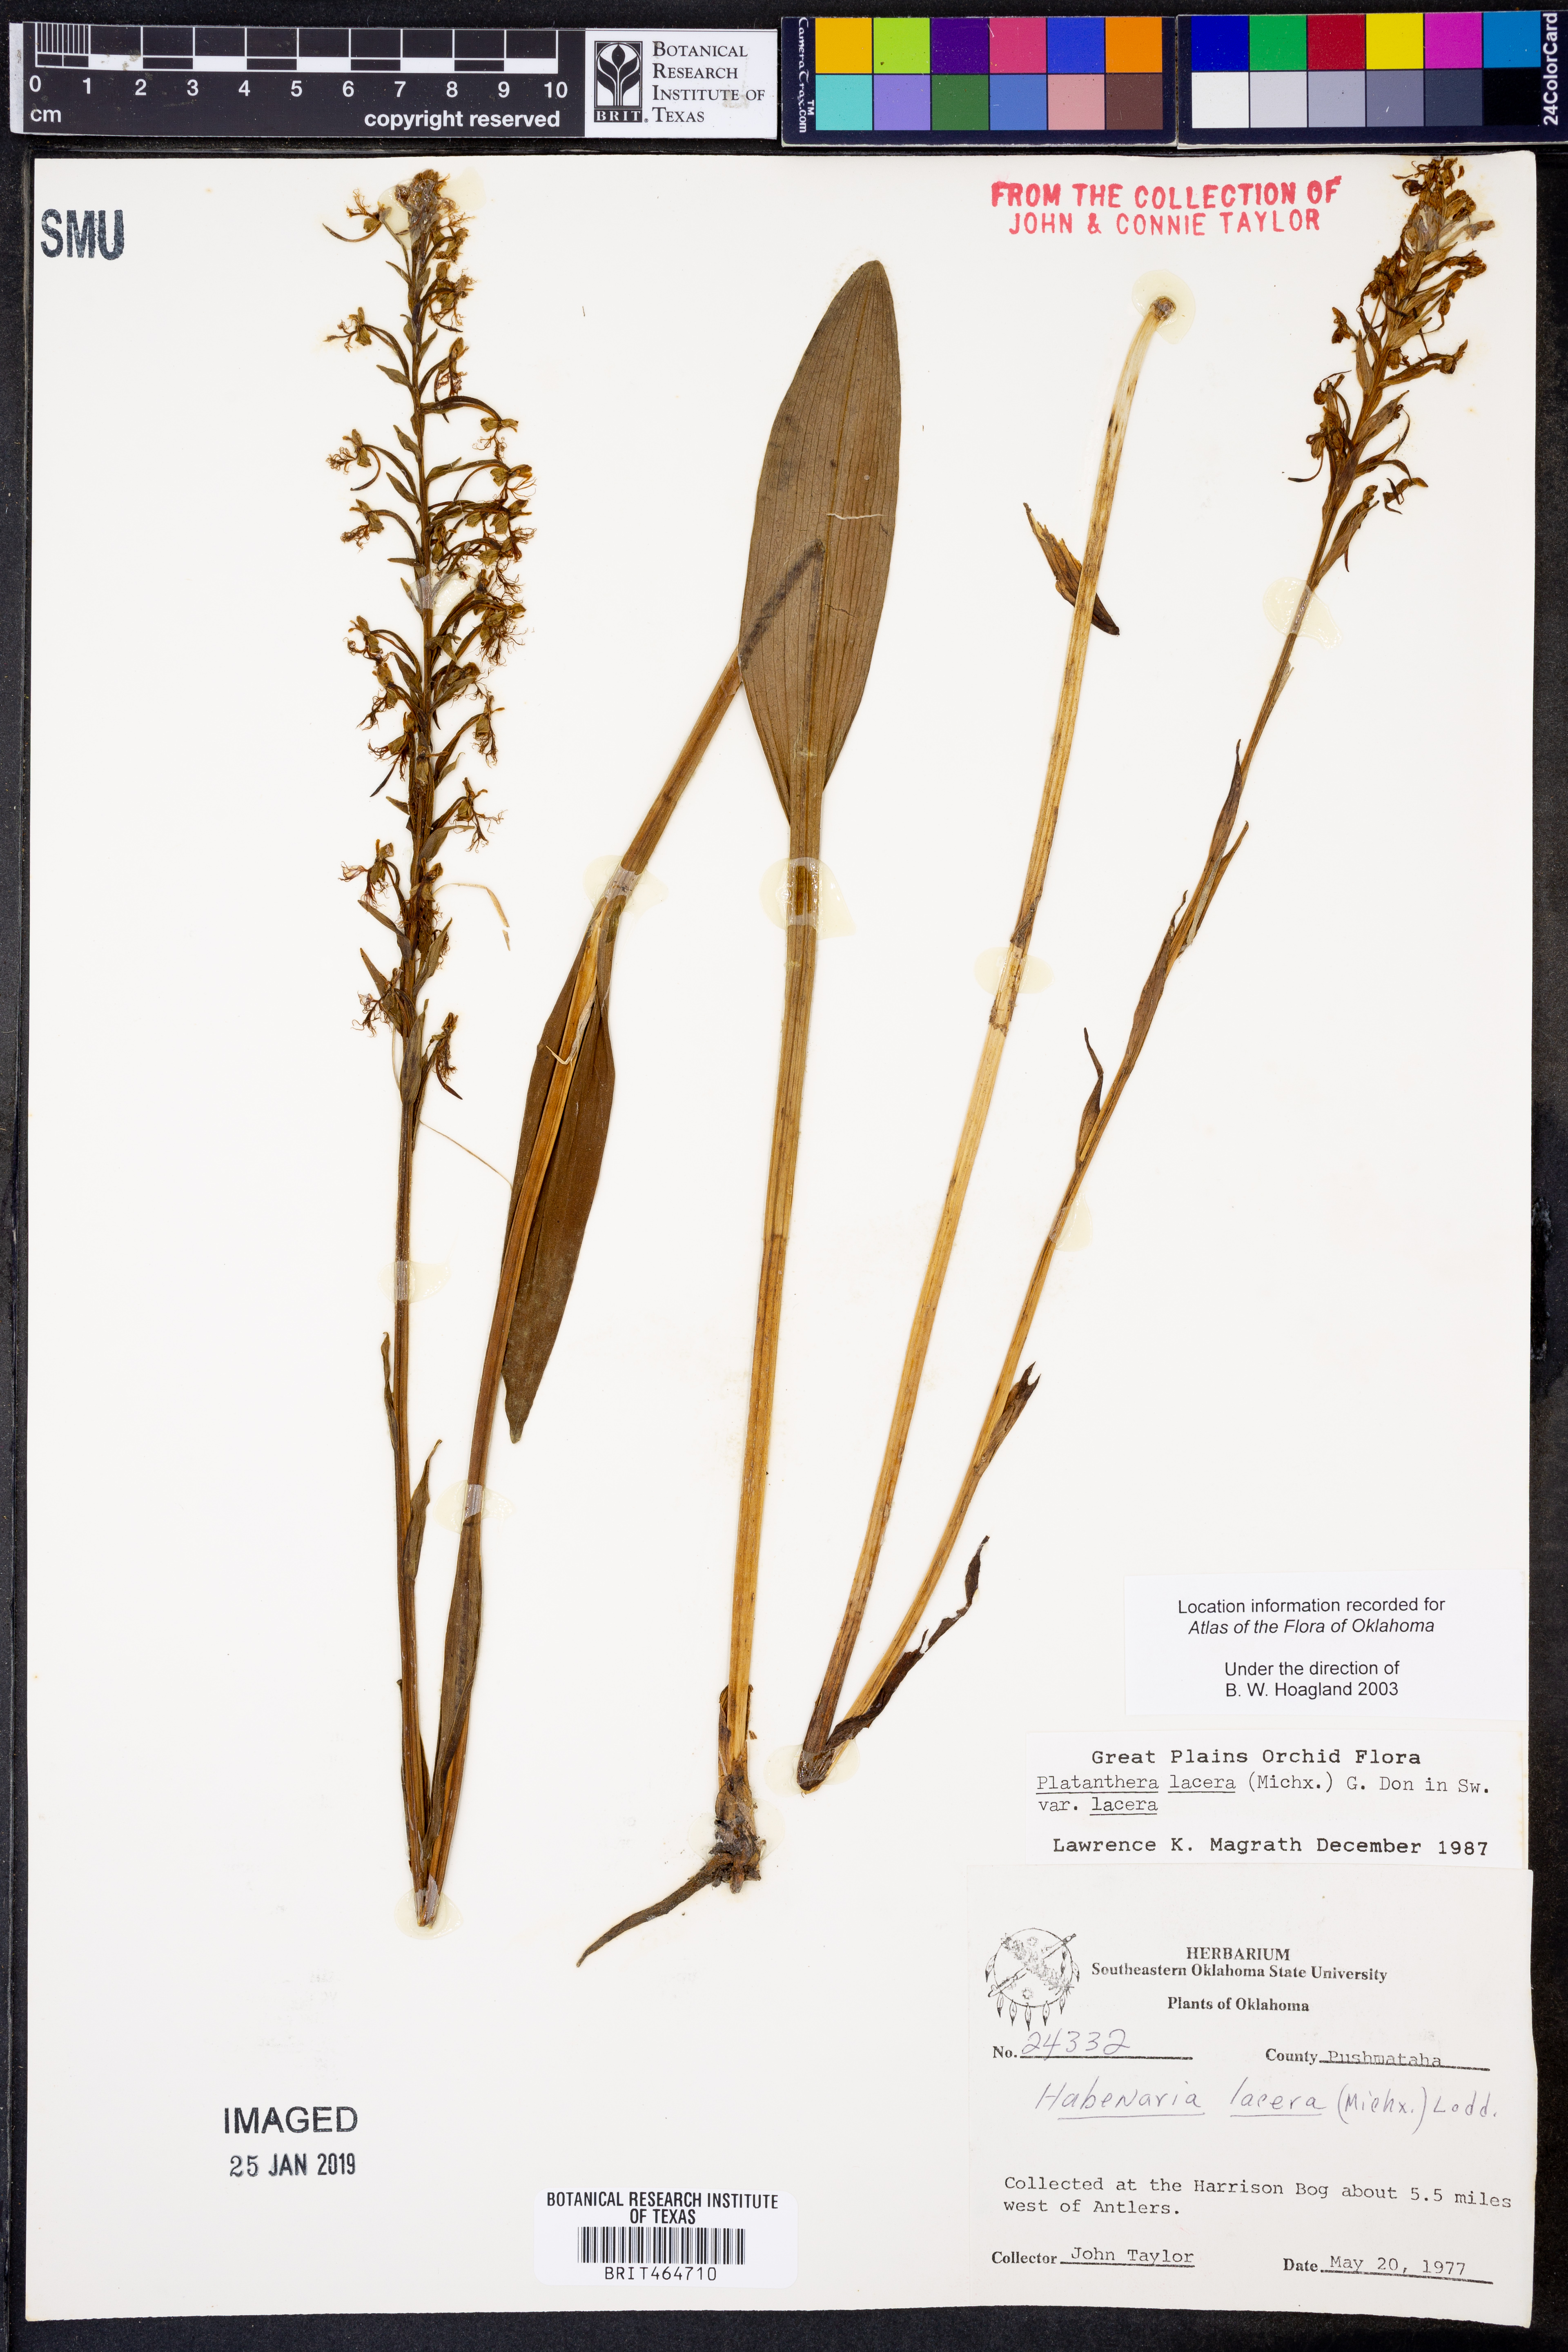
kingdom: Plantae
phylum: Tracheophyta
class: Liliopsida
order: Asparagales
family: Orchidaceae
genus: Platanthera
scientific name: Platanthera lacera
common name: Green fringed orchid
